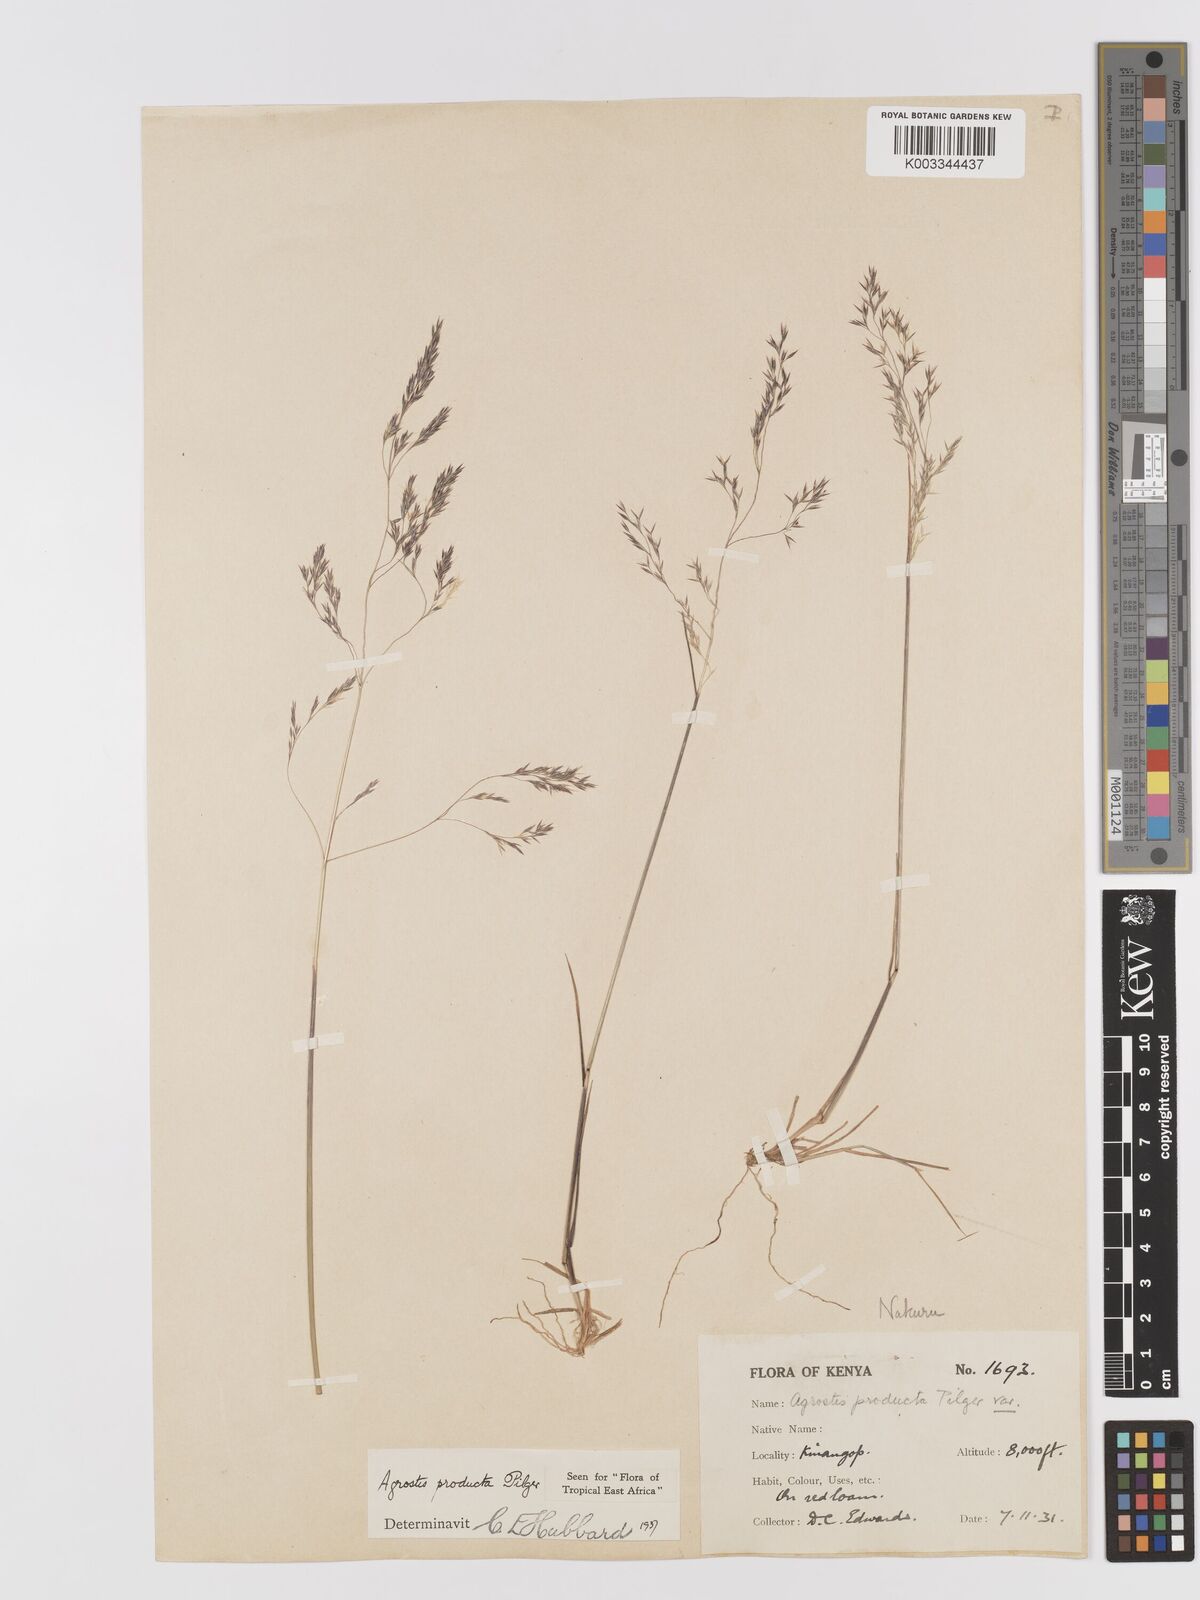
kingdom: Plantae
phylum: Tracheophyta
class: Liliopsida
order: Poales
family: Poaceae
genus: Agrostis
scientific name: Agrostis producta
